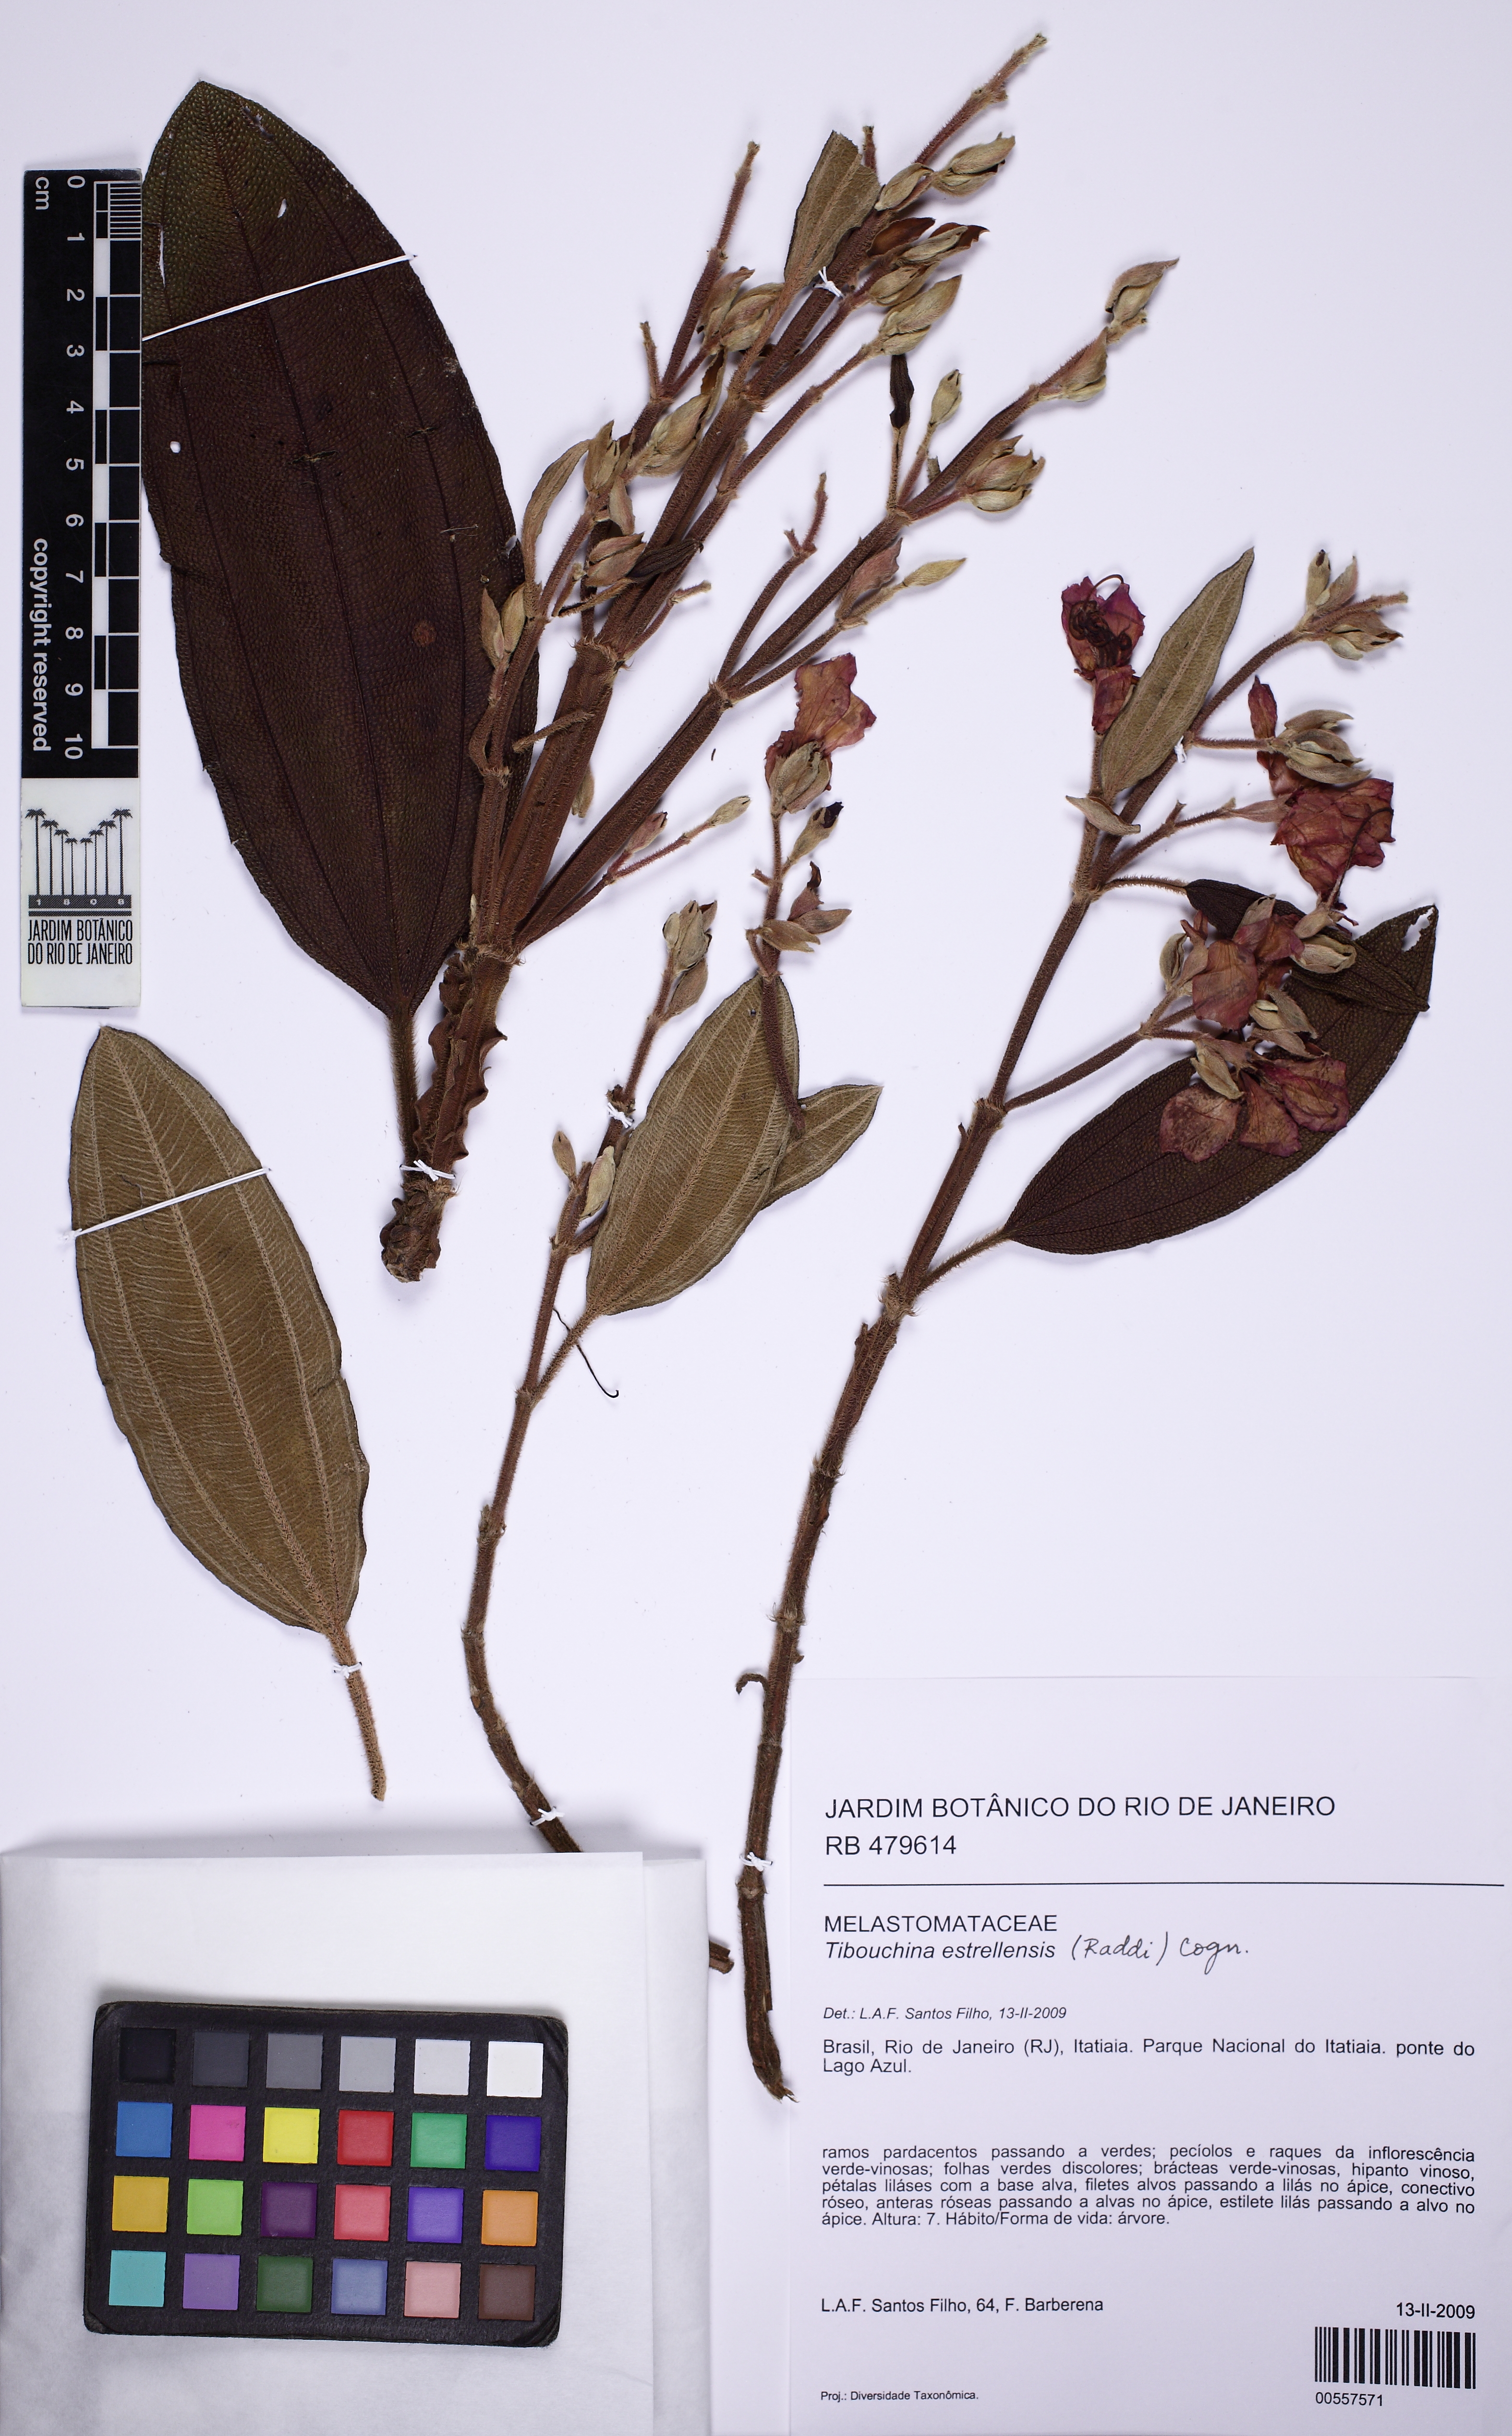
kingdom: Plantae
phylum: Tracheophyta
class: Magnoliopsida
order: Myrtales
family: Melastomataceae
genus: Pleroma
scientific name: Pleroma estrellense
